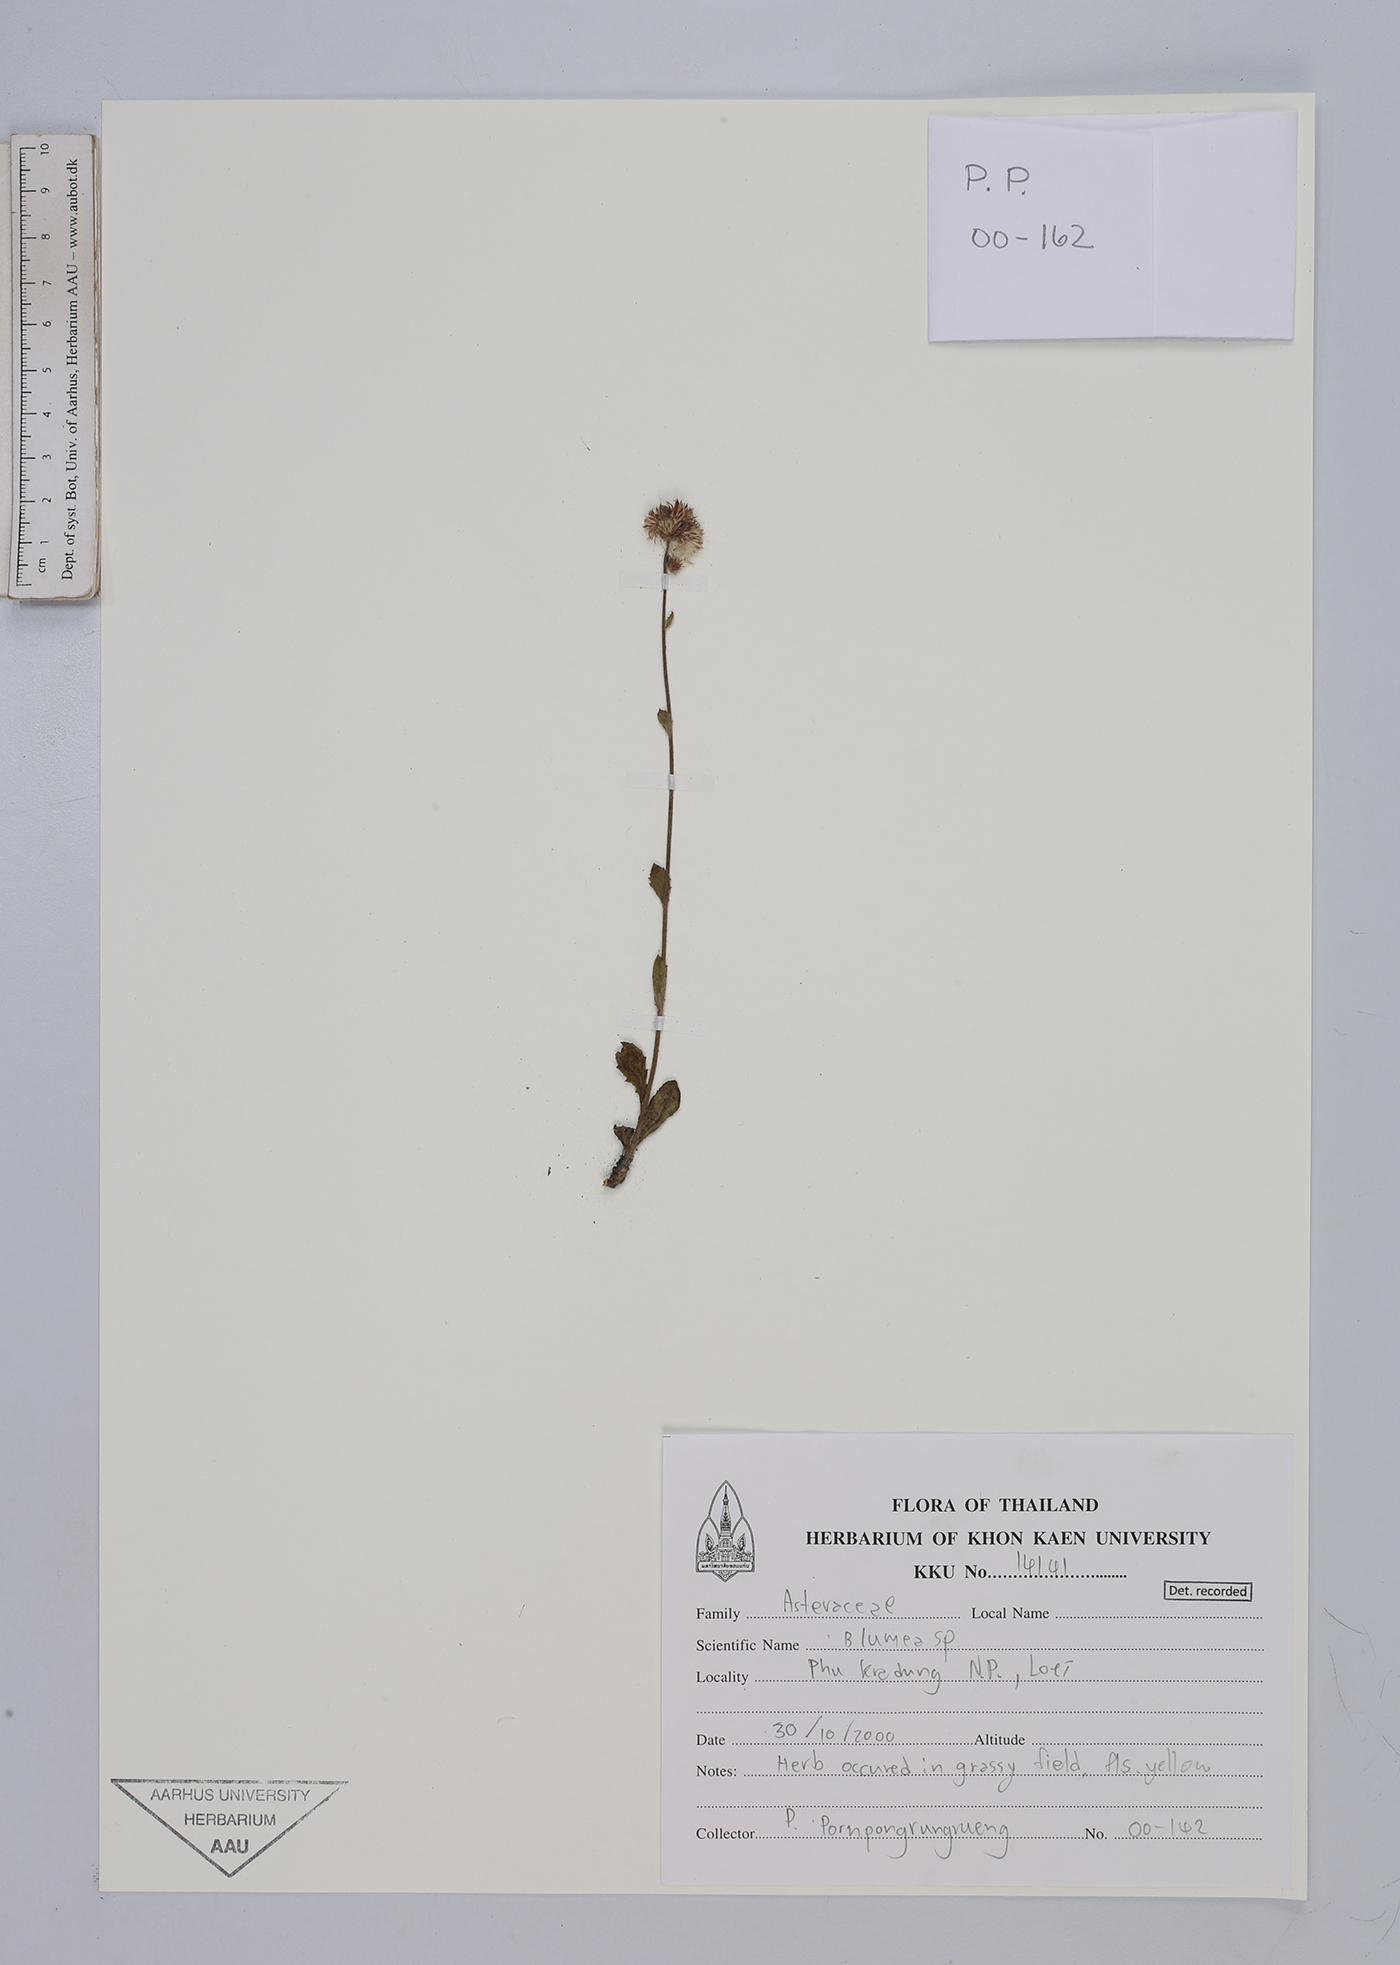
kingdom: Plantae
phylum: Tracheophyta
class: Magnoliopsida
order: Asterales
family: Asteraceae
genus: Blumea
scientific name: Blumea
